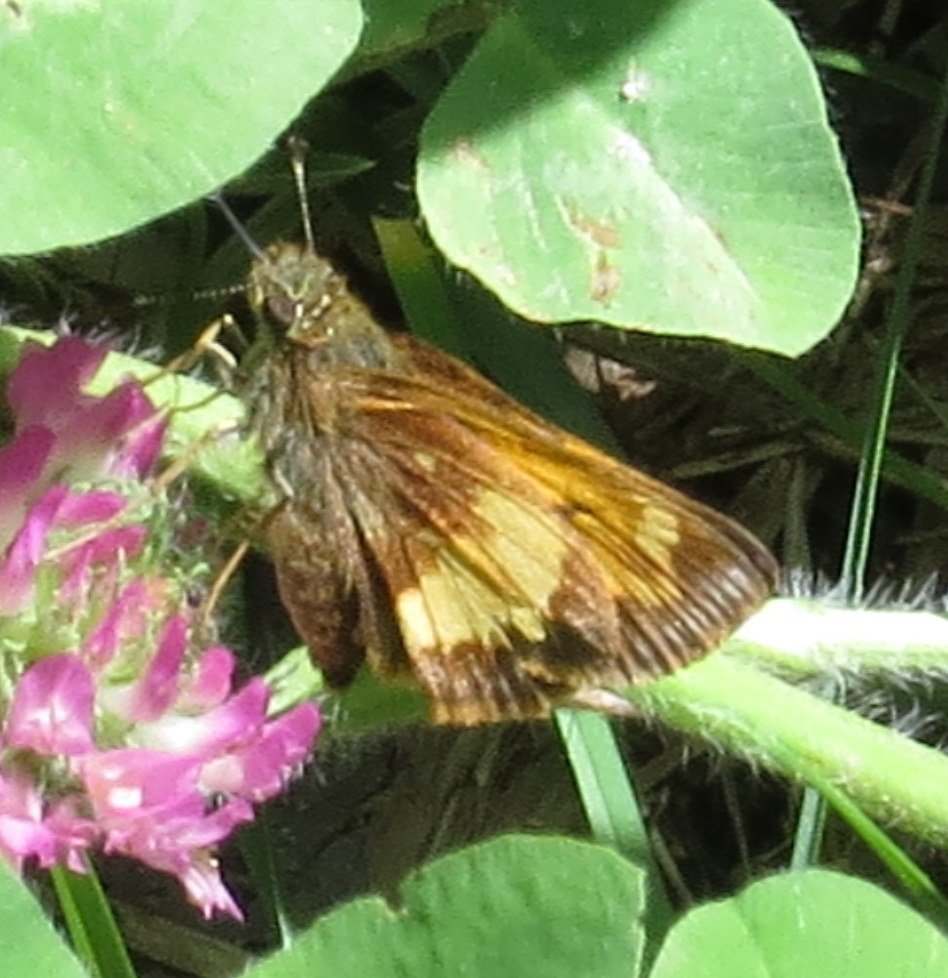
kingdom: Animalia
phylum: Arthropoda
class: Insecta
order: Lepidoptera
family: Hesperiidae
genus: Lon
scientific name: Lon hobomok
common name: Hobomok Skipper
